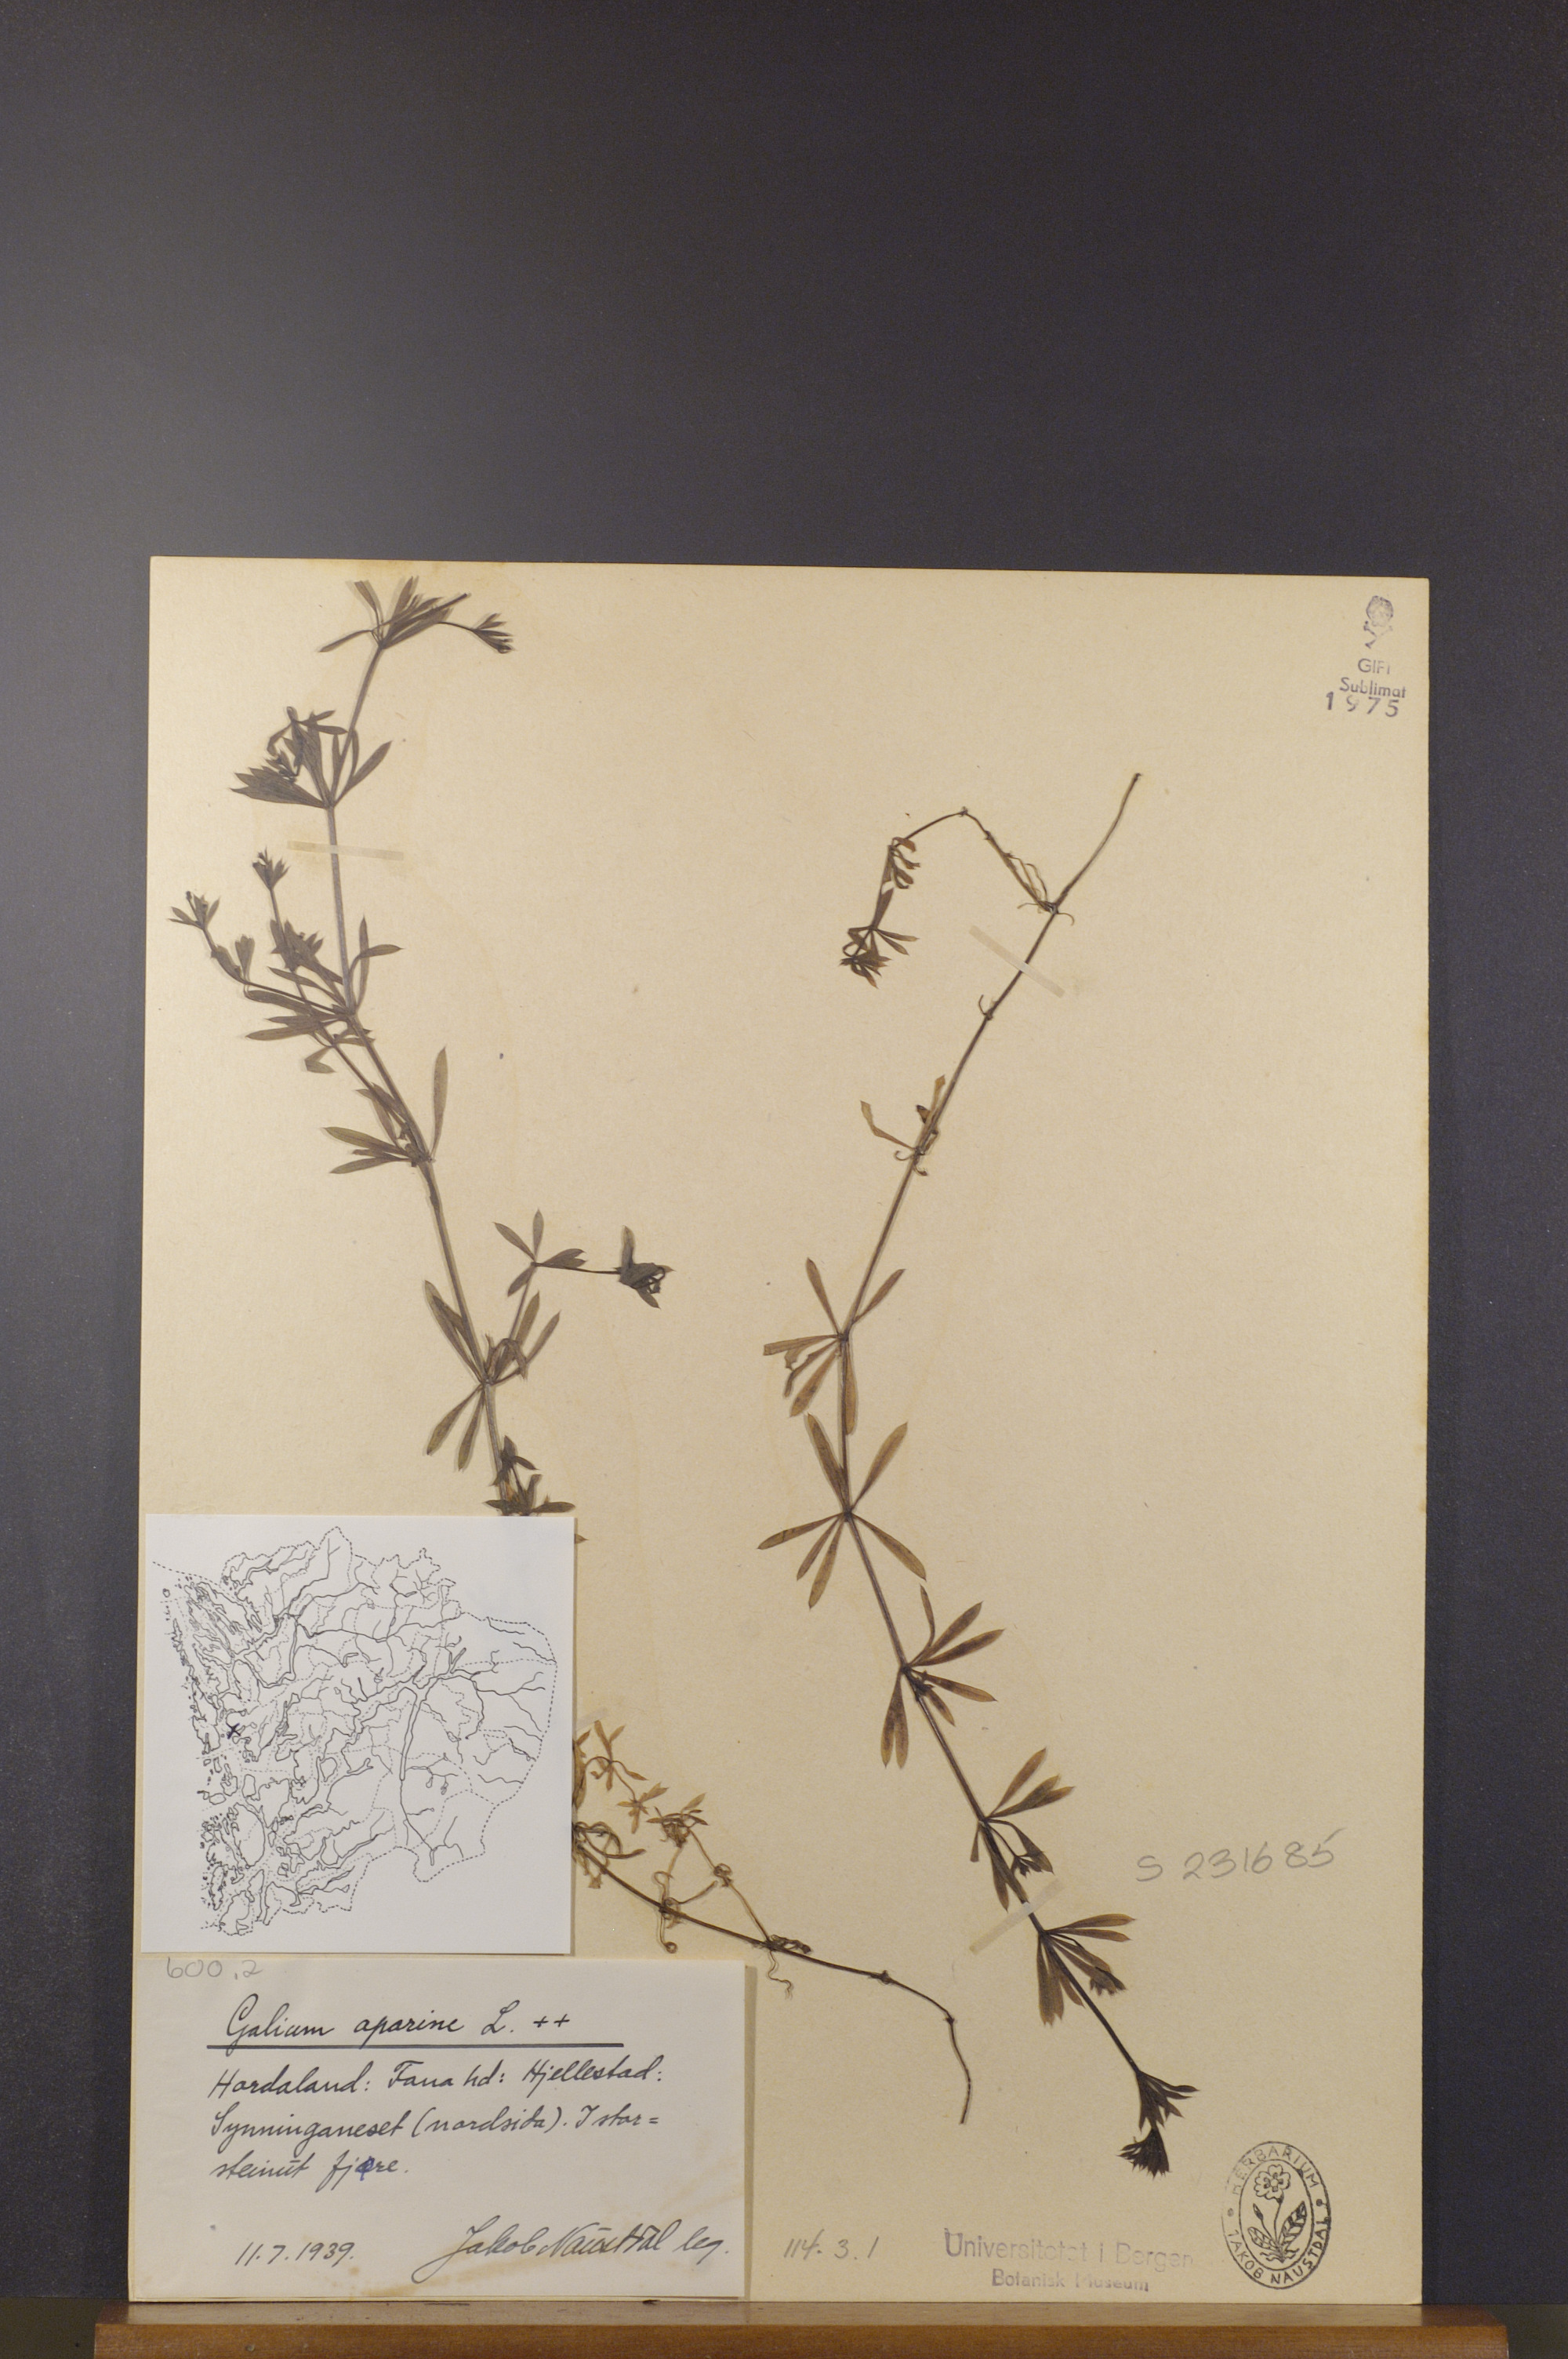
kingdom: Plantae
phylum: Tracheophyta
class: Magnoliopsida
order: Gentianales
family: Rubiaceae
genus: Galium
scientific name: Galium aparine
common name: Cleavers
